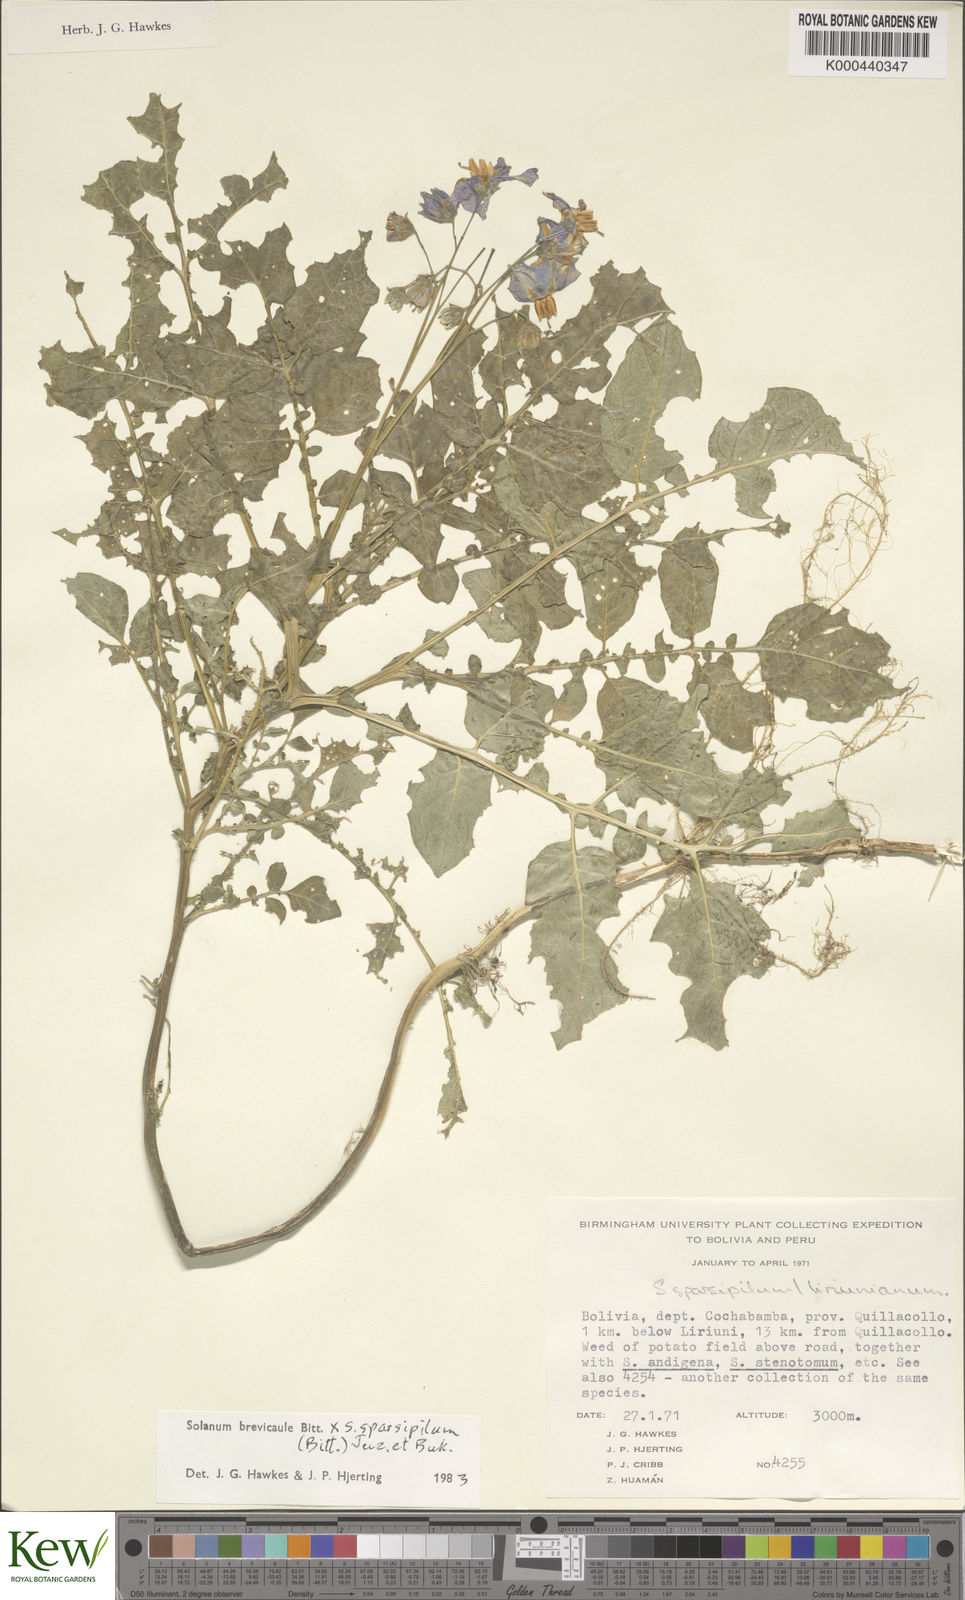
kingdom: Plantae
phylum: Tracheophyta
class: Magnoliopsida
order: Solanales
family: Solanaceae
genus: Solanum
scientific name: Solanum brevicaule
